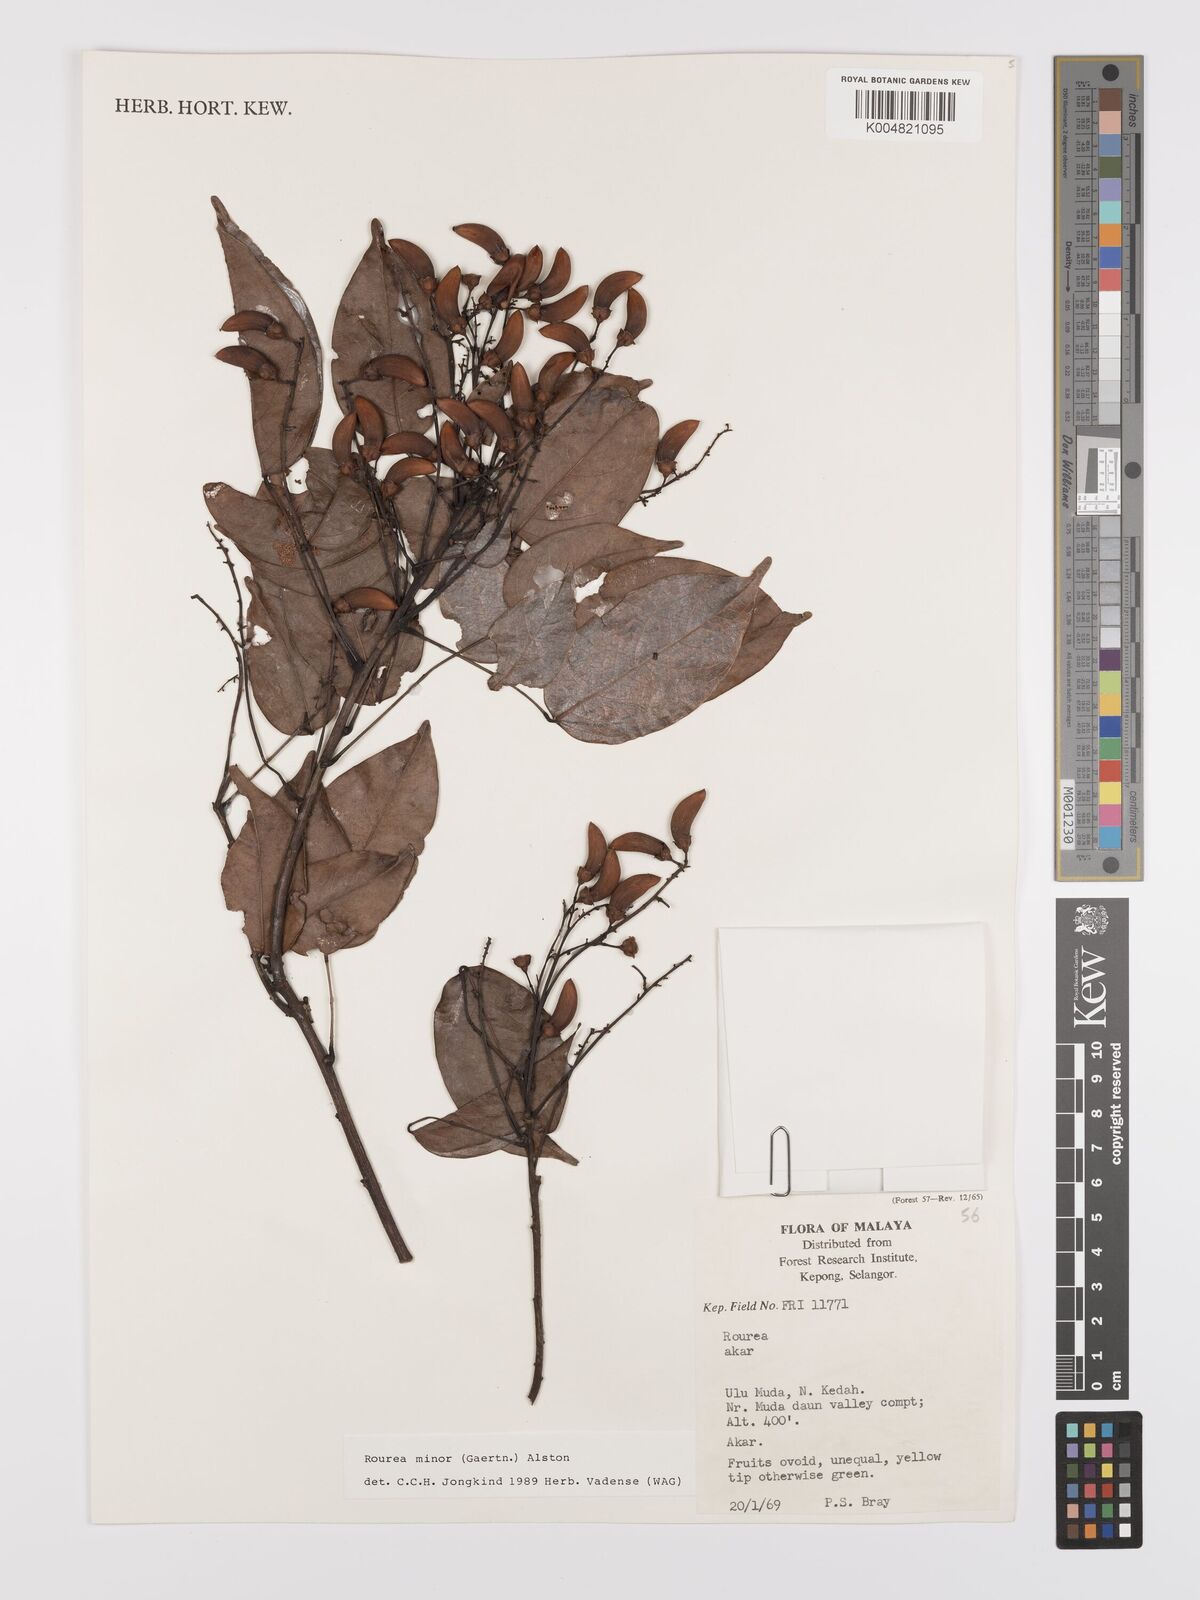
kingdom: Plantae
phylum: Tracheophyta
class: Magnoliopsida
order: Oxalidales
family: Connaraceae
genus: Rourea
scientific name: Rourea minor
